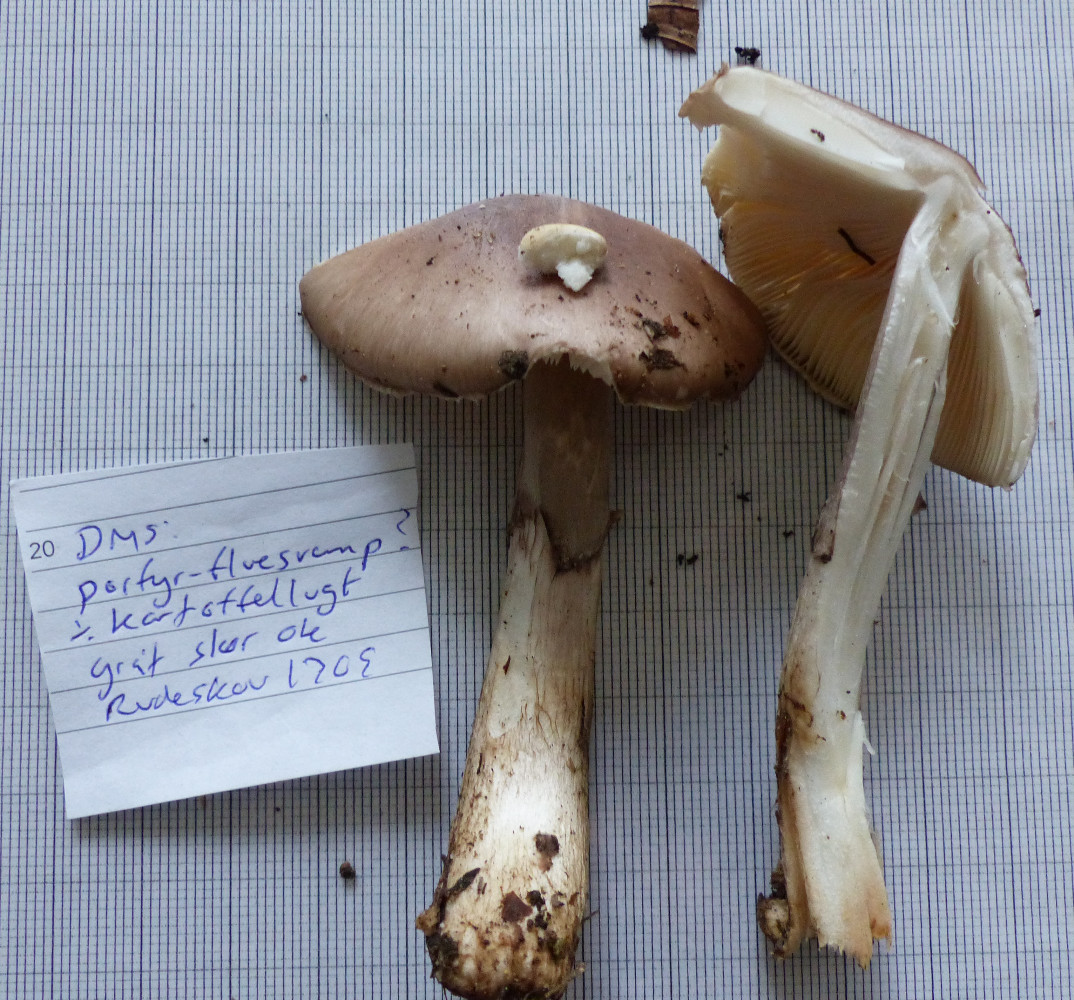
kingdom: Fungi
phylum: Basidiomycota
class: Agaricomycetes
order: Agaricales
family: Amanitaceae
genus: Amanita
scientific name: Amanita porphyria
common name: porfyr-fluesvamp
